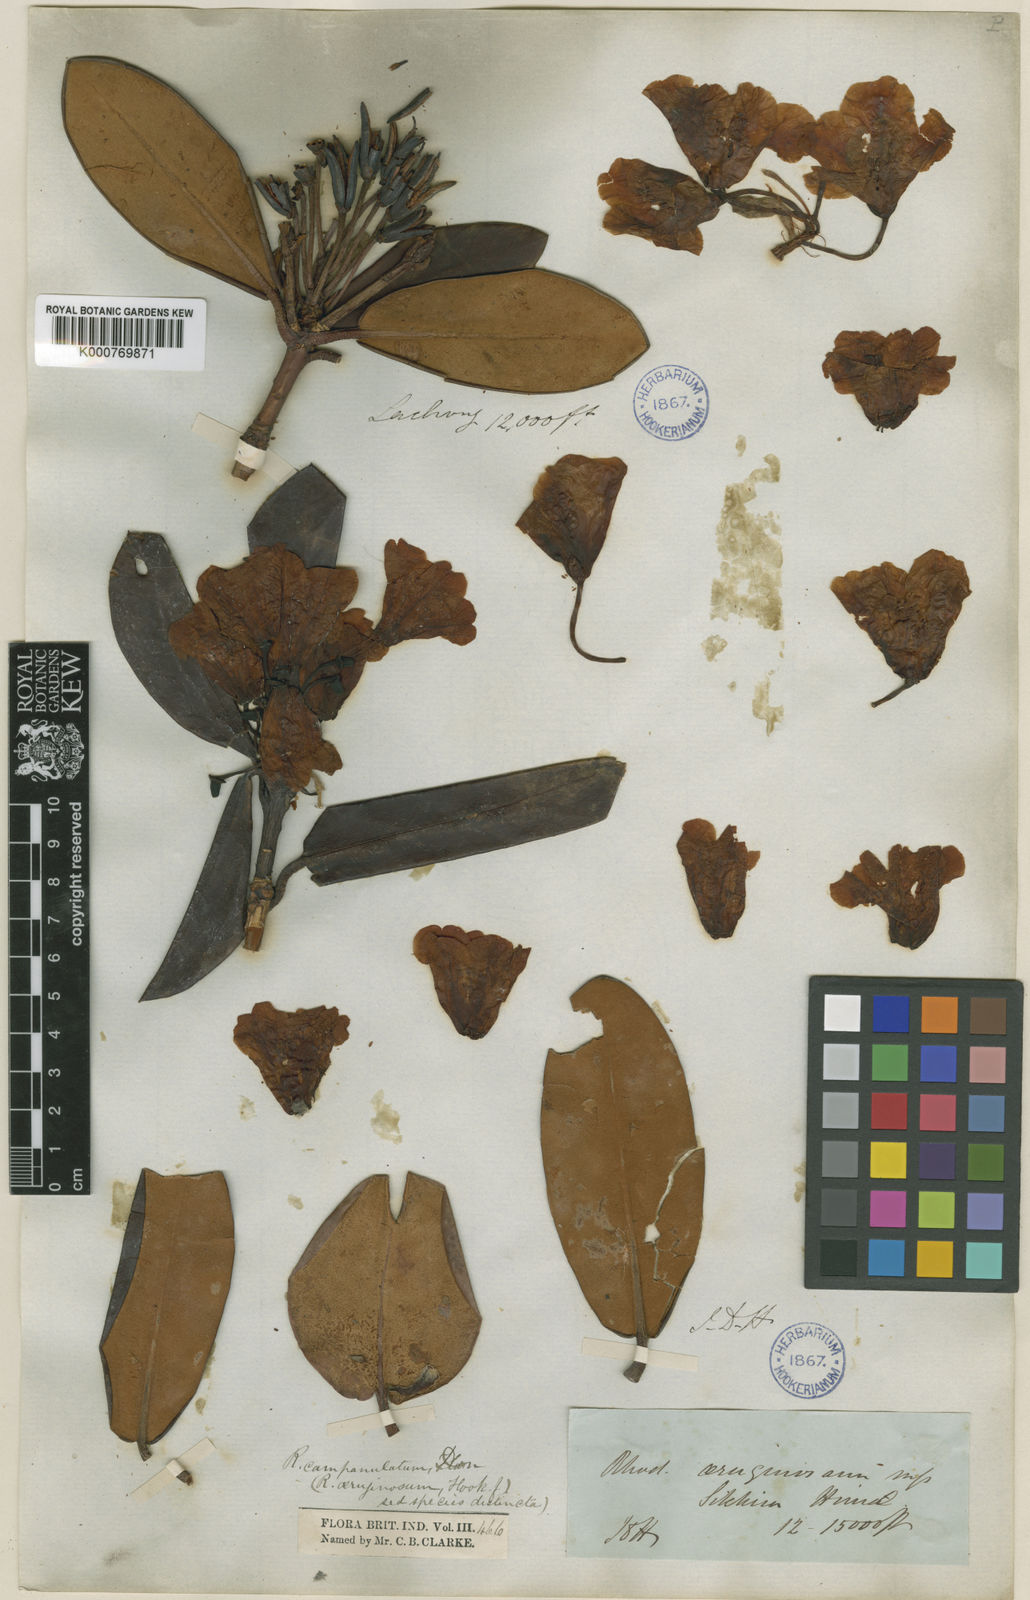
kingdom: Plantae
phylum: Tracheophyta
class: Magnoliopsida
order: Ericales
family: Ericaceae
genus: Rhododendron
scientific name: Rhododendron campanulatum
